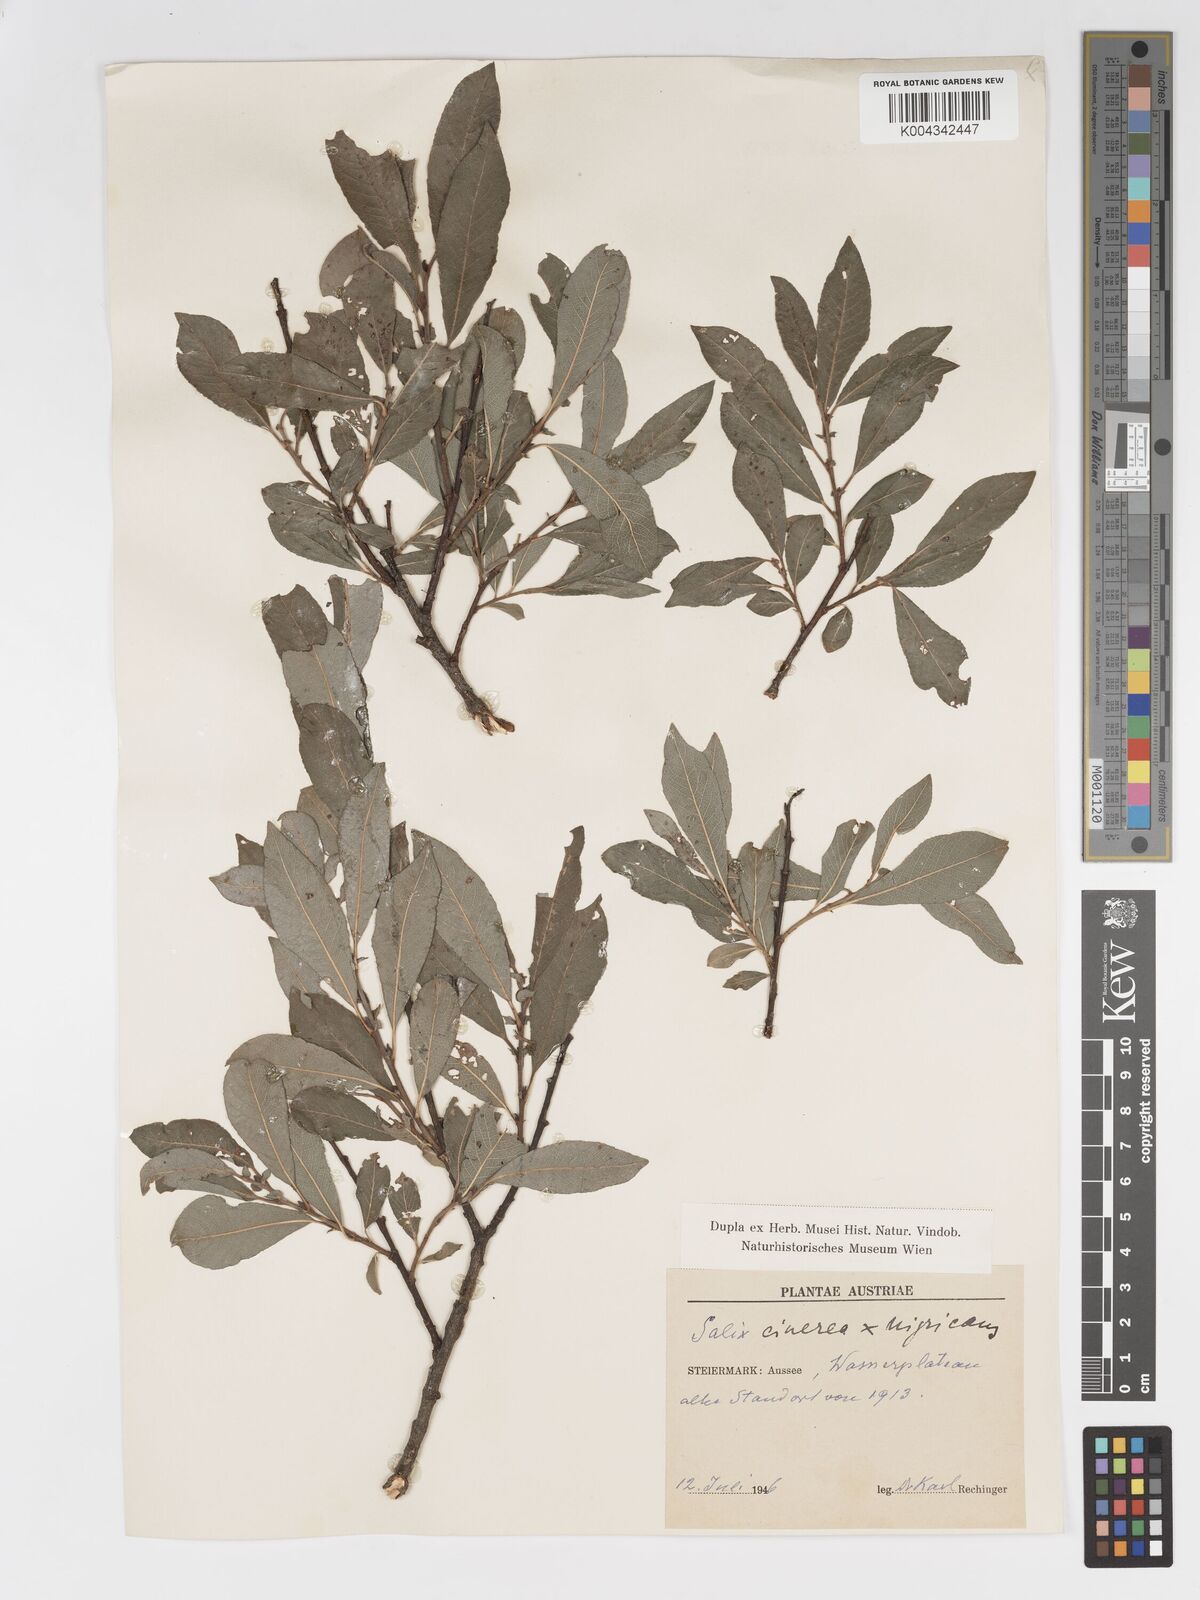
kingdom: Plantae
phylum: Tracheophyta
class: Magnoliopsida
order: Malpighiales
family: Salicaceae
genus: Salix
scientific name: Salix
